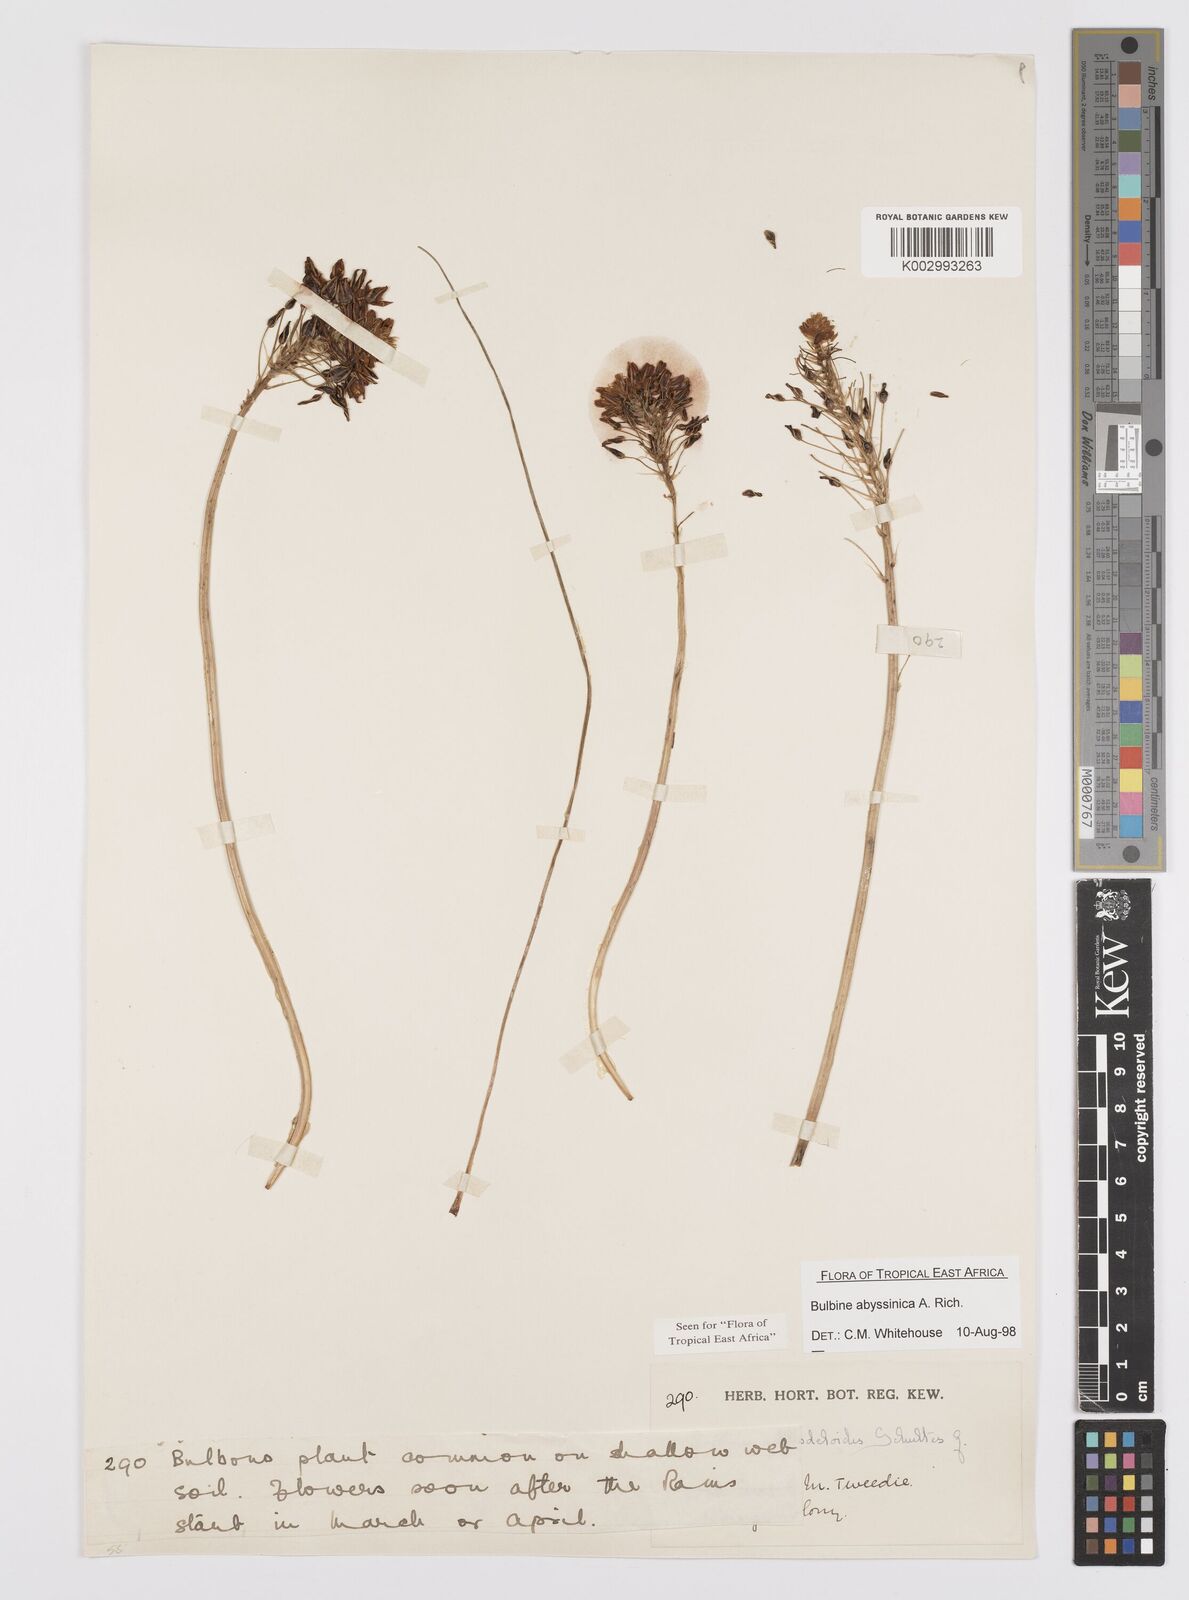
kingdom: Plantae
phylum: Tracheophyta
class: Liliopsida
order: Asparagales
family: Asphodelaceae
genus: Bulbine
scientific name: Bulbine abyssinica
